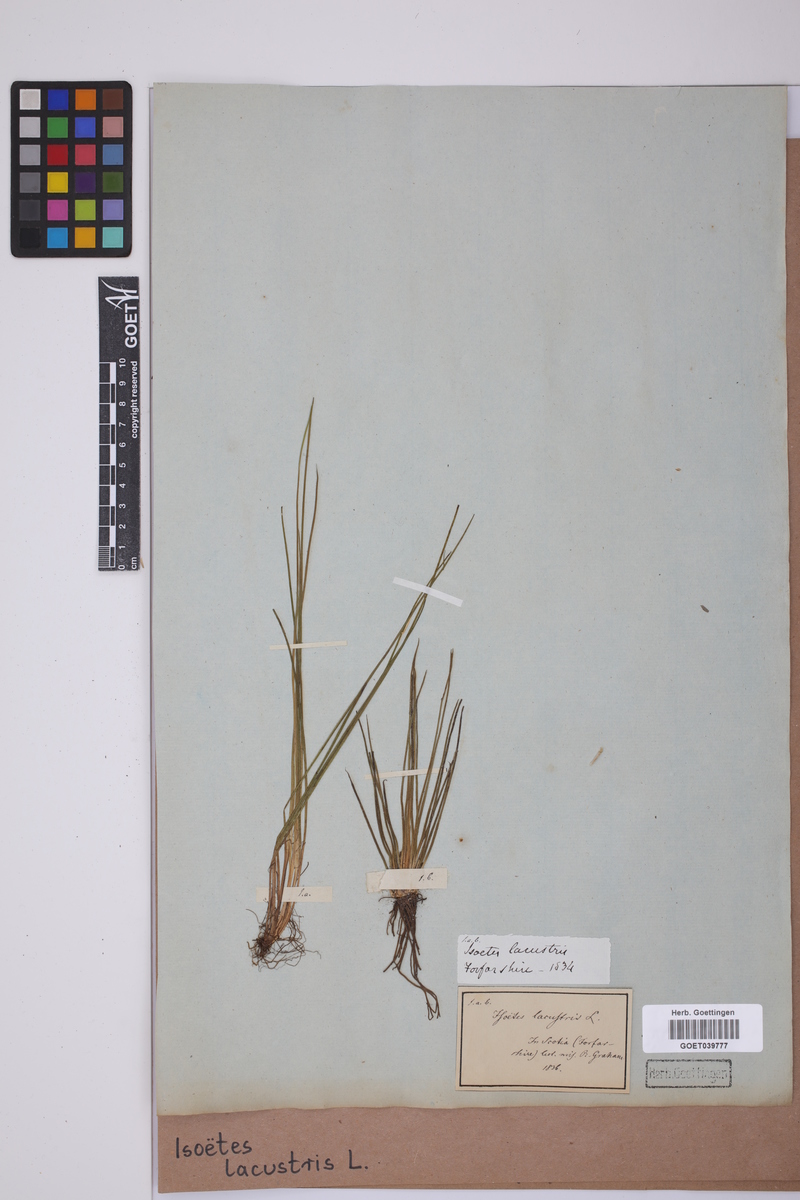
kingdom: Plantae
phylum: Tracheophyta
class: Lycopodiopsida
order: Isoetales
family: Isoetaceae
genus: Isoetes
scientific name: Isoetes lacustris
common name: Common quillwort
